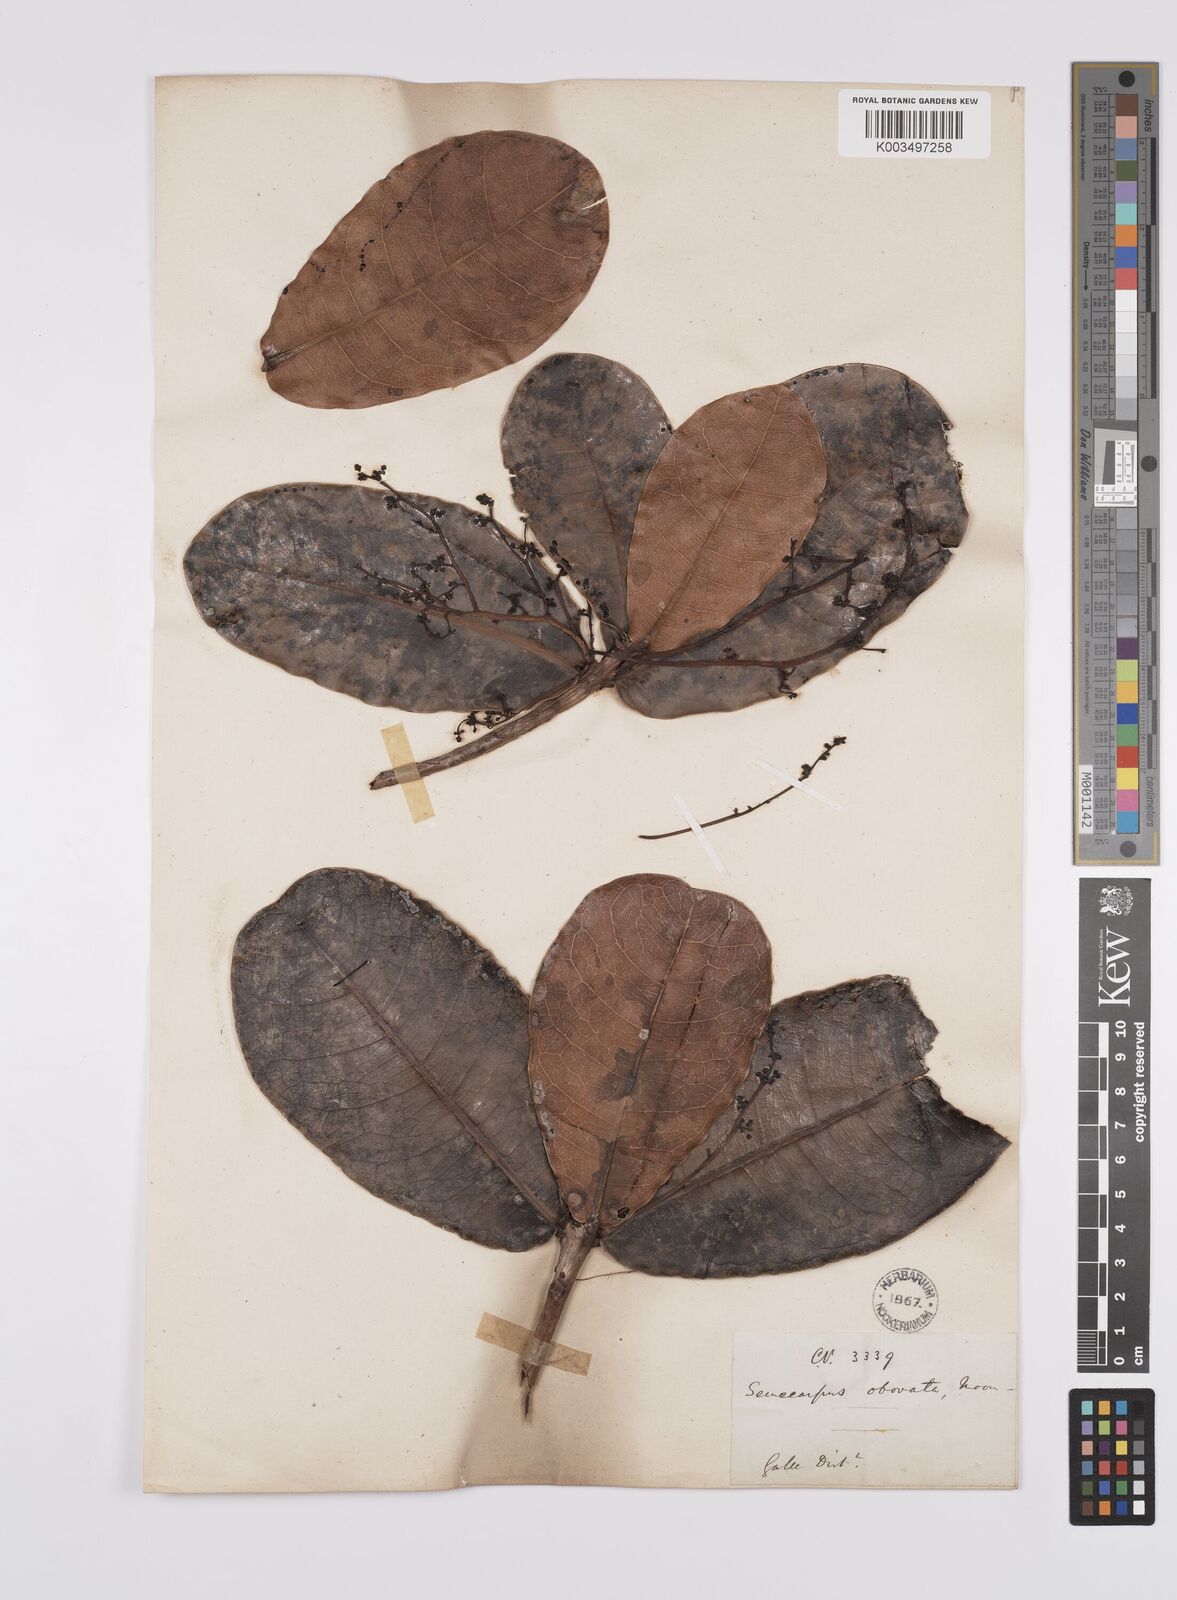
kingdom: Plantae
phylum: Tracheophyta
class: Magnoliopsida
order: Sapindales
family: Anacardiaceae
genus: Semecarpus
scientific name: Semecarpus obovatus
